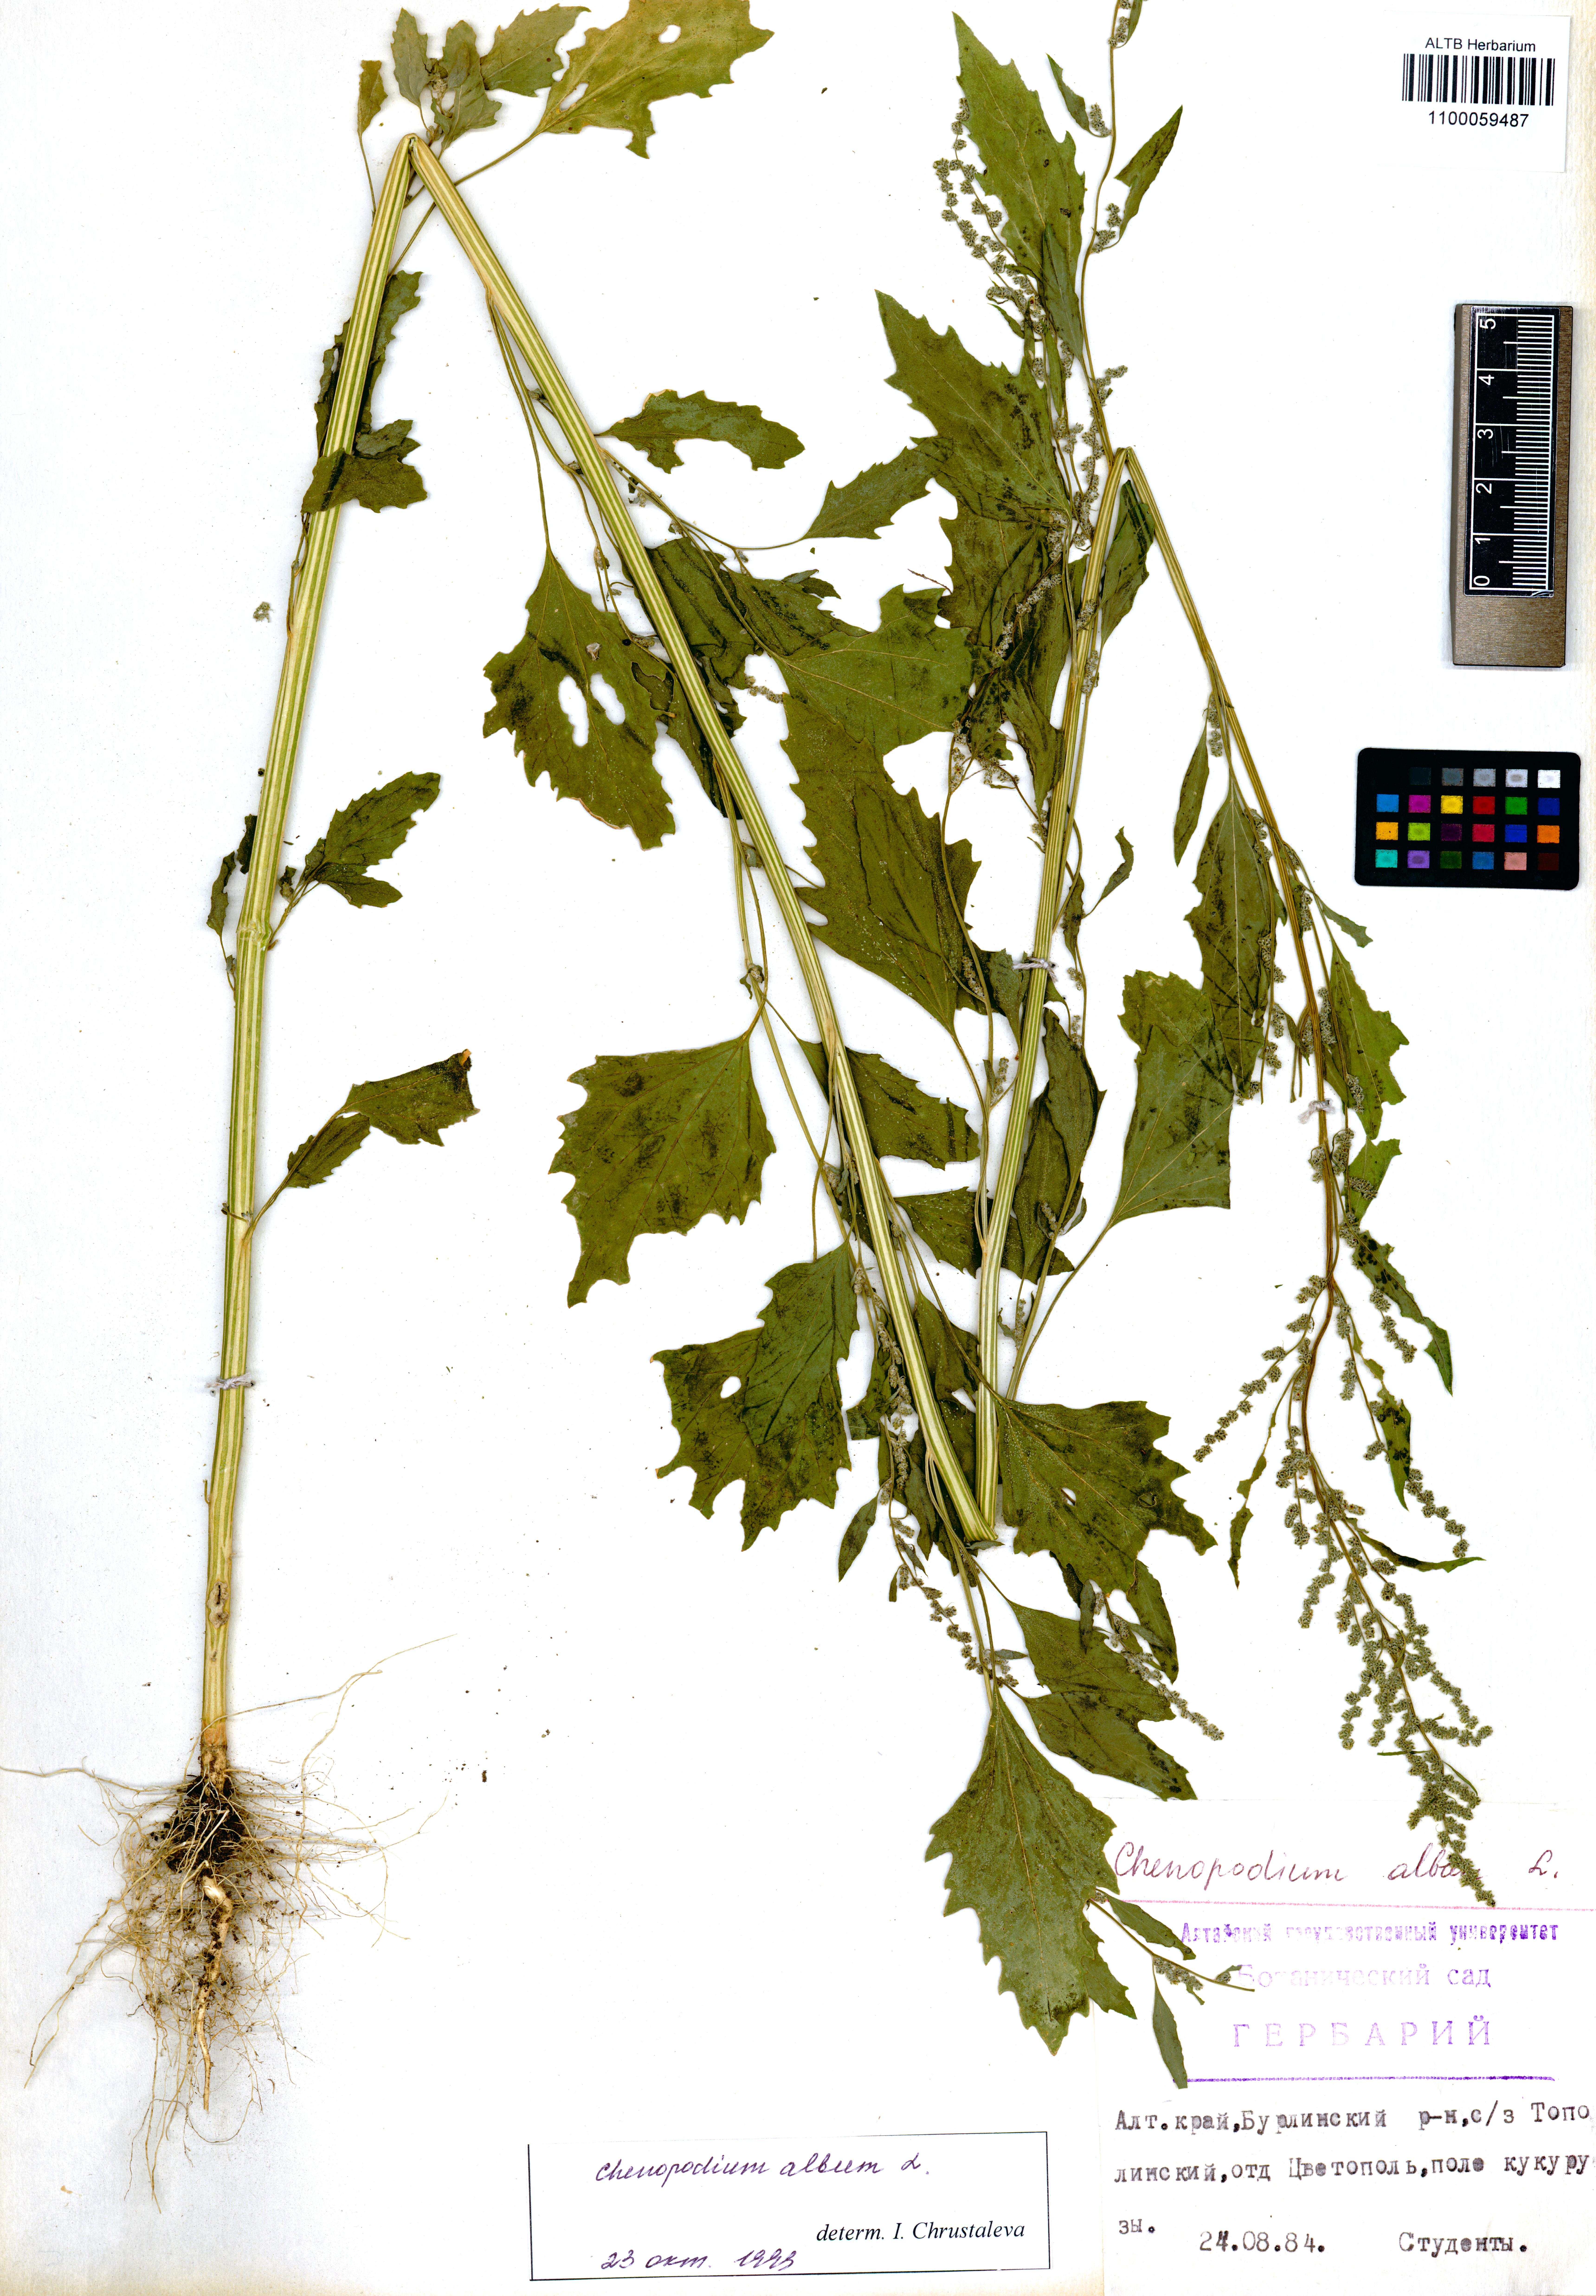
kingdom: Plantae
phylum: Tracheophyta
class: Magnoliopsida
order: Boraginales
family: Boraginaceae
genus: Symphytum
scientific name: Symphytum grandiflorum
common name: Creeping comfrey
